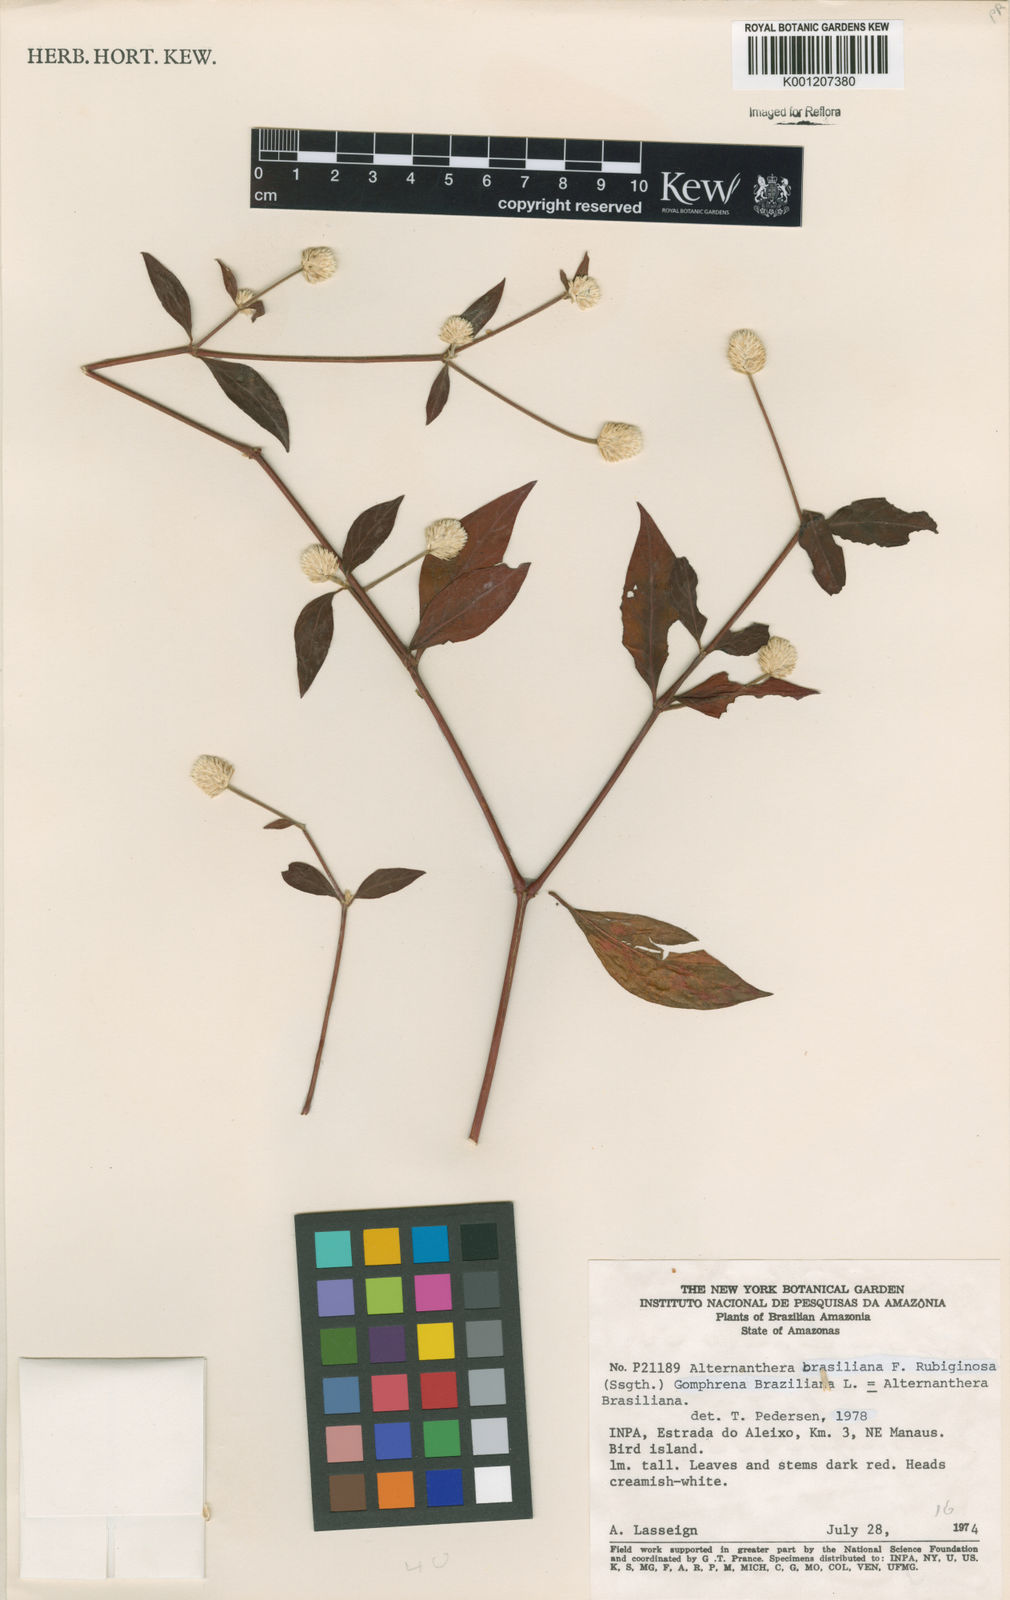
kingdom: Plantae
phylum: Tracheophyta
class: Magnoliopsida
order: Caryophyllales
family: Amaranthaceae
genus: Alternanthera
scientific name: Alternanthera ramosissima
